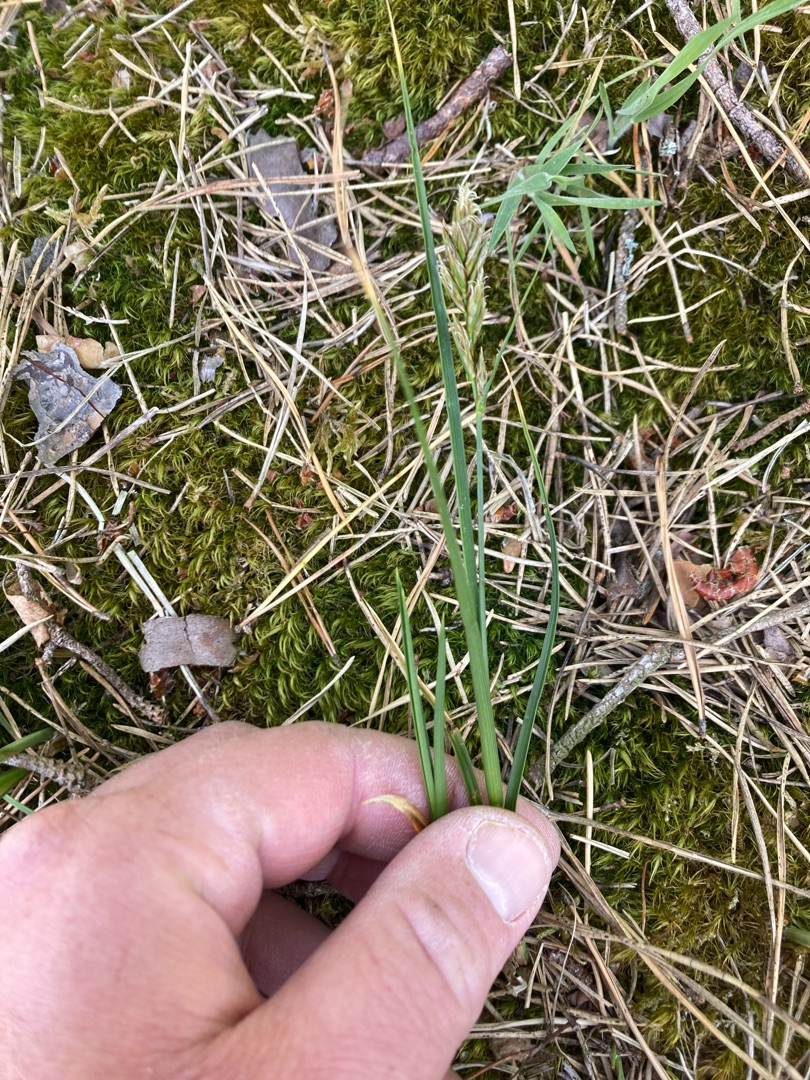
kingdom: Plantae
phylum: Tracheophyta
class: Liliopsida
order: Poales
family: Cyperaceae
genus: Carex
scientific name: Carex arenaria
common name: Sand-star
